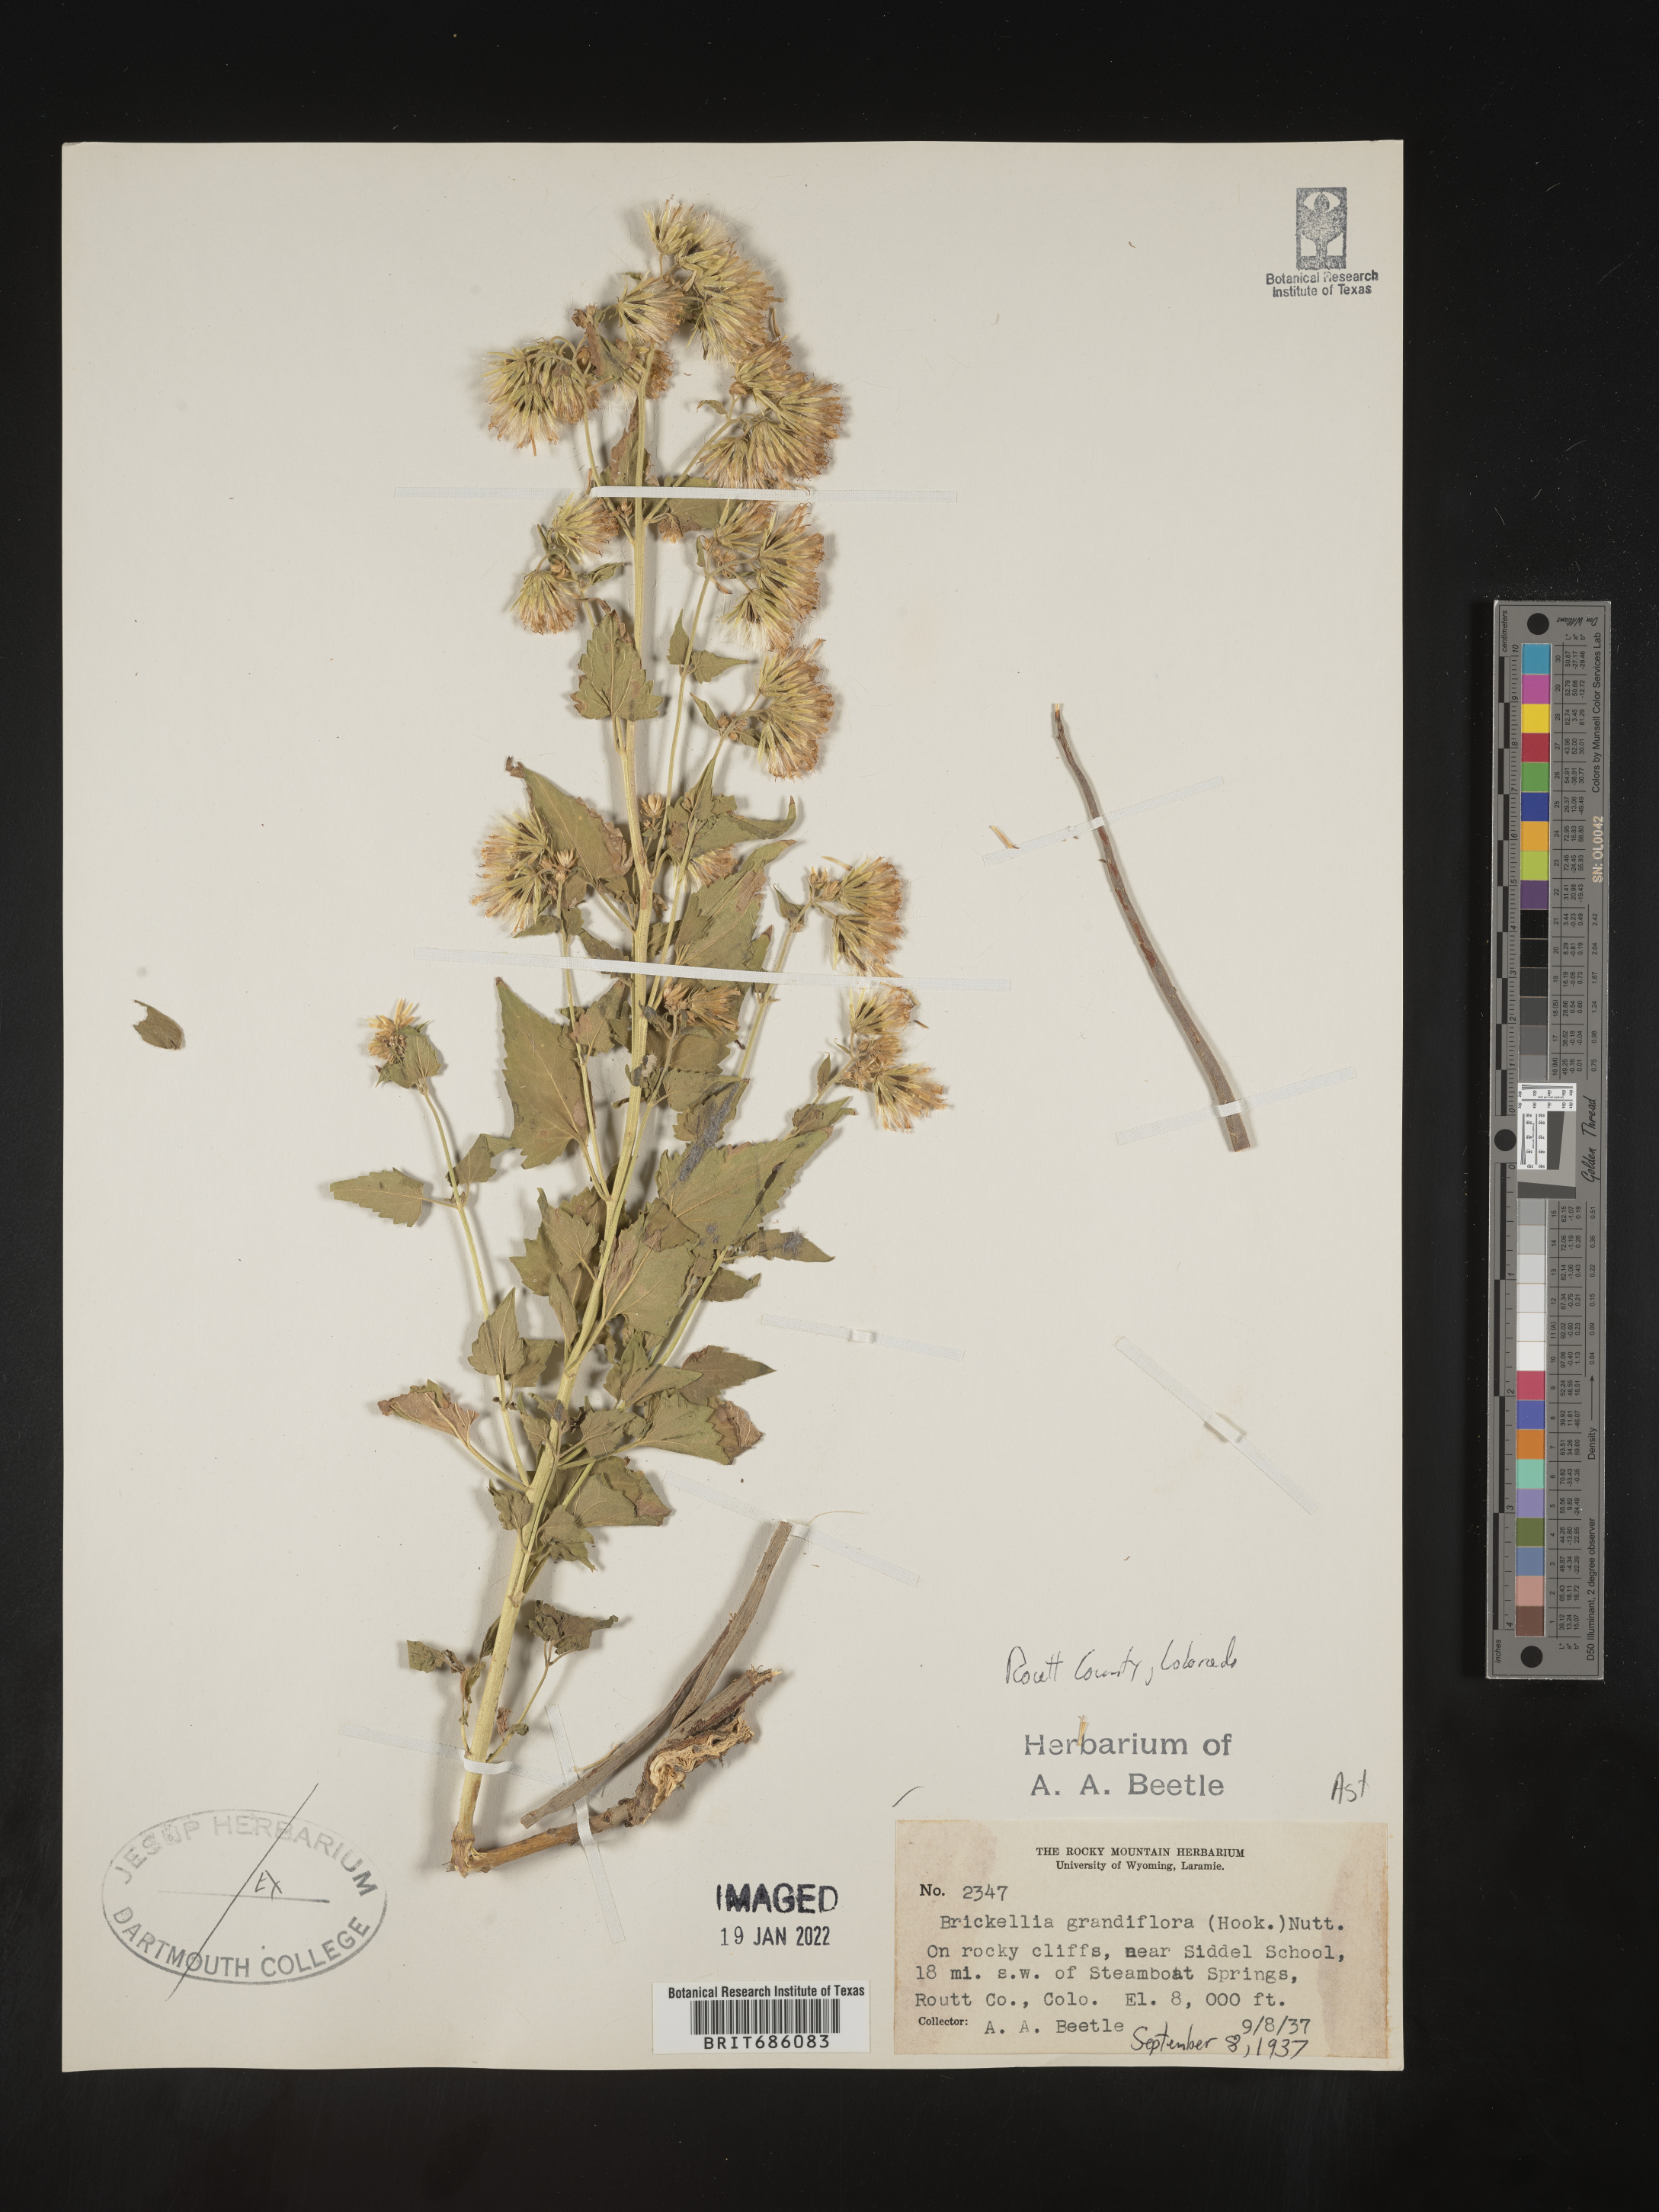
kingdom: Plantae
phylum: Tracheophyta
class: Magnoliopsida
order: Asterales
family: Asteraceae
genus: Brickellia
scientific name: Brickellia grandiflora
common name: Large-flowered brickellia
